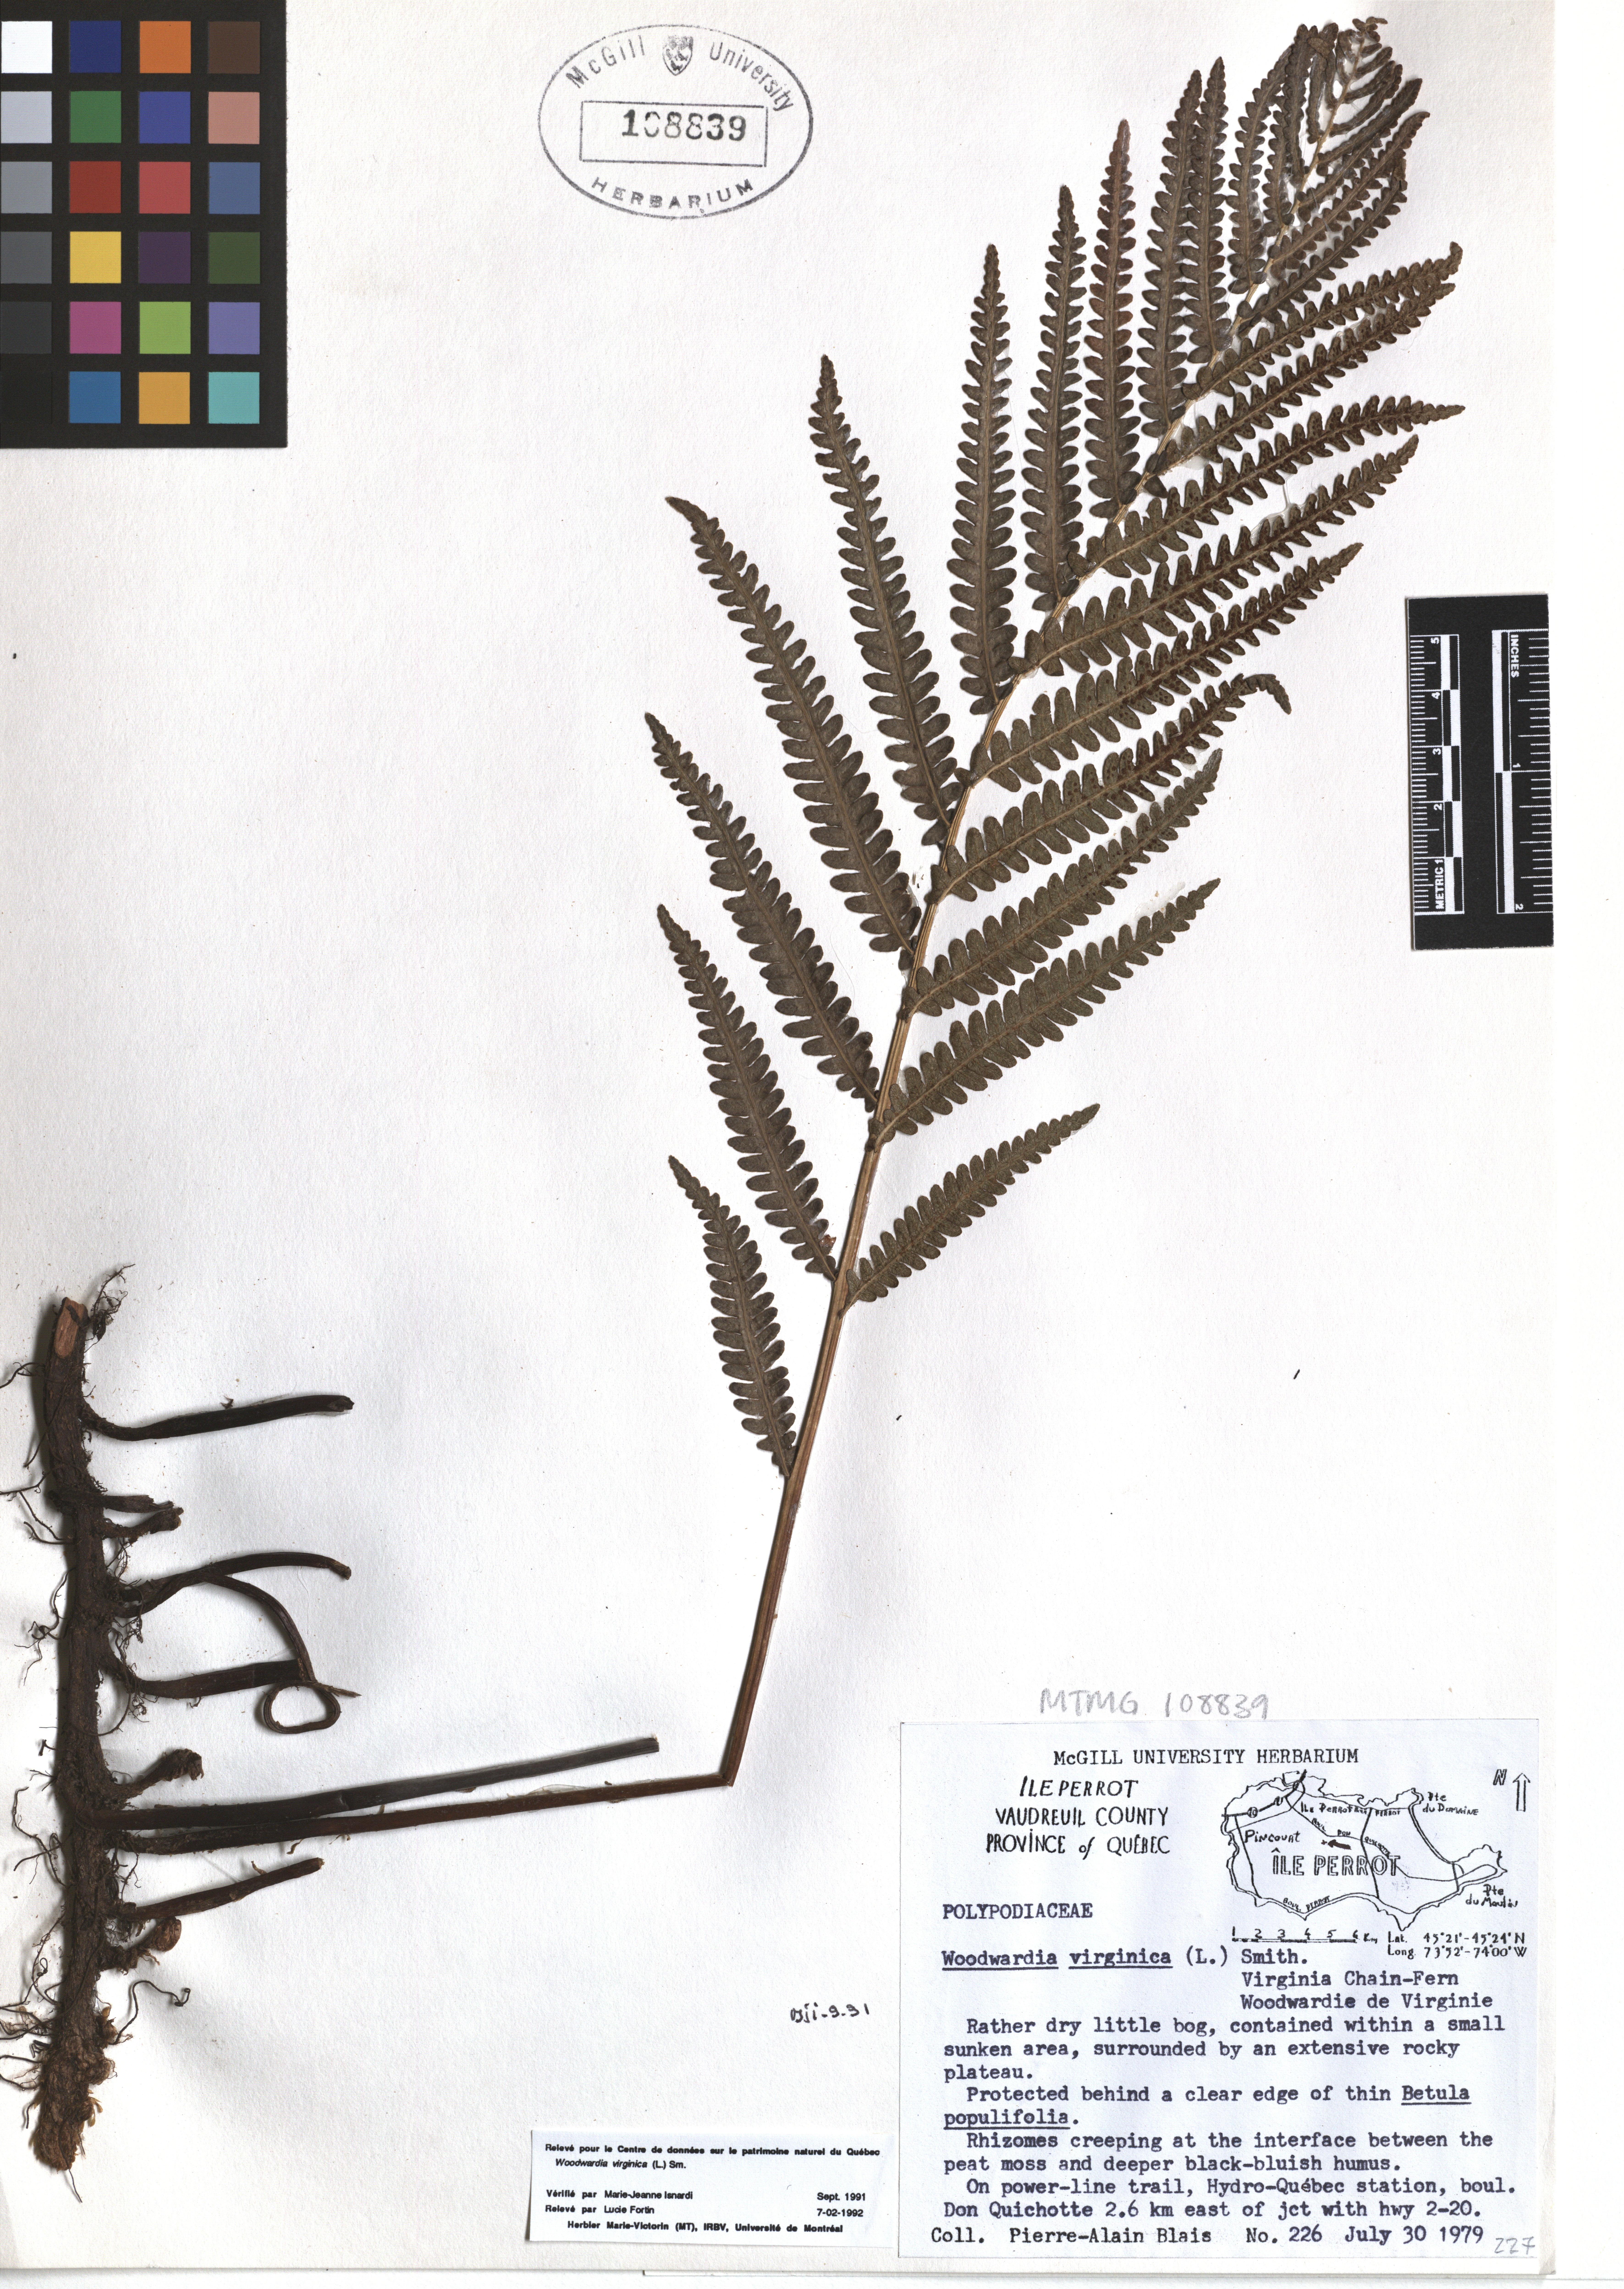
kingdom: Plantae
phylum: Tracheophyta
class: Polypodiopsida
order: Polypodiales
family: Blechnaceae
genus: Anchistea
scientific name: Anchistea virginica
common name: Virginia chain fern
